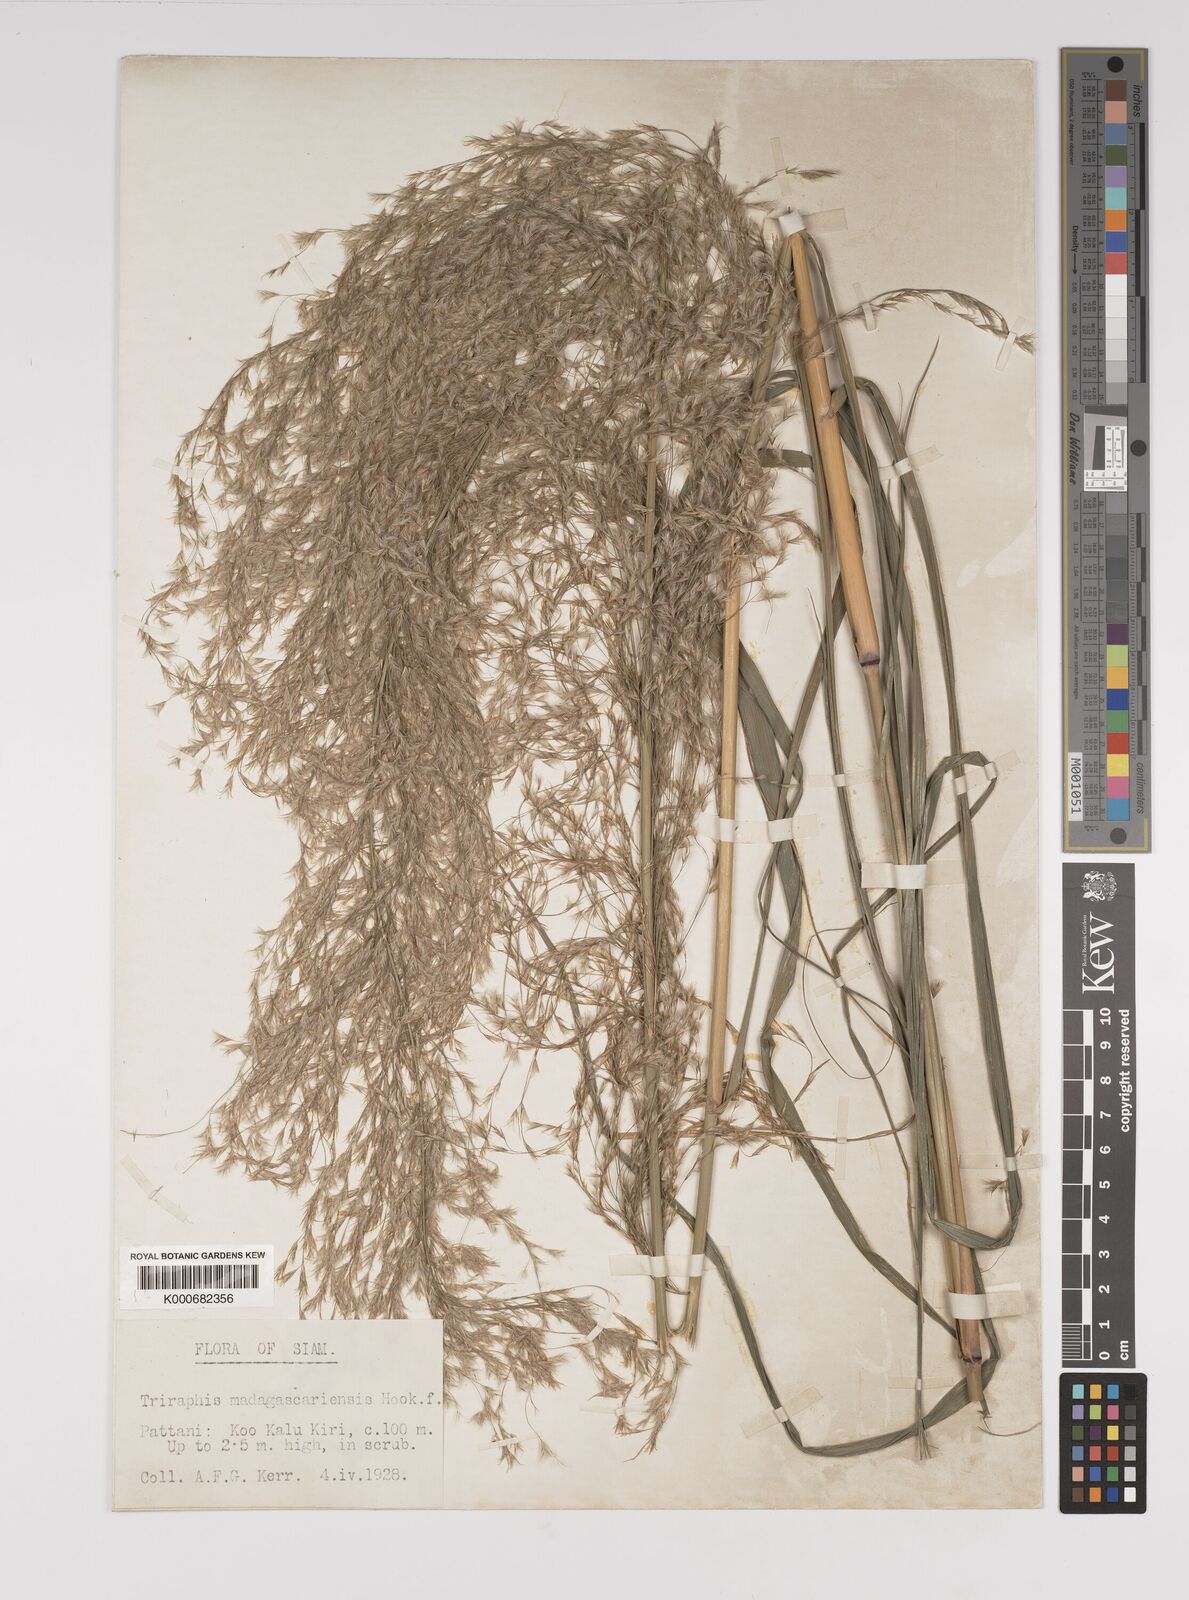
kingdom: Plantae
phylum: Tracheophyta
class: Liliopsida
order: Poales
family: Poaceae
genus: Neyraudia
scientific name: Neyraudia reynaudiana
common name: Silkreed
